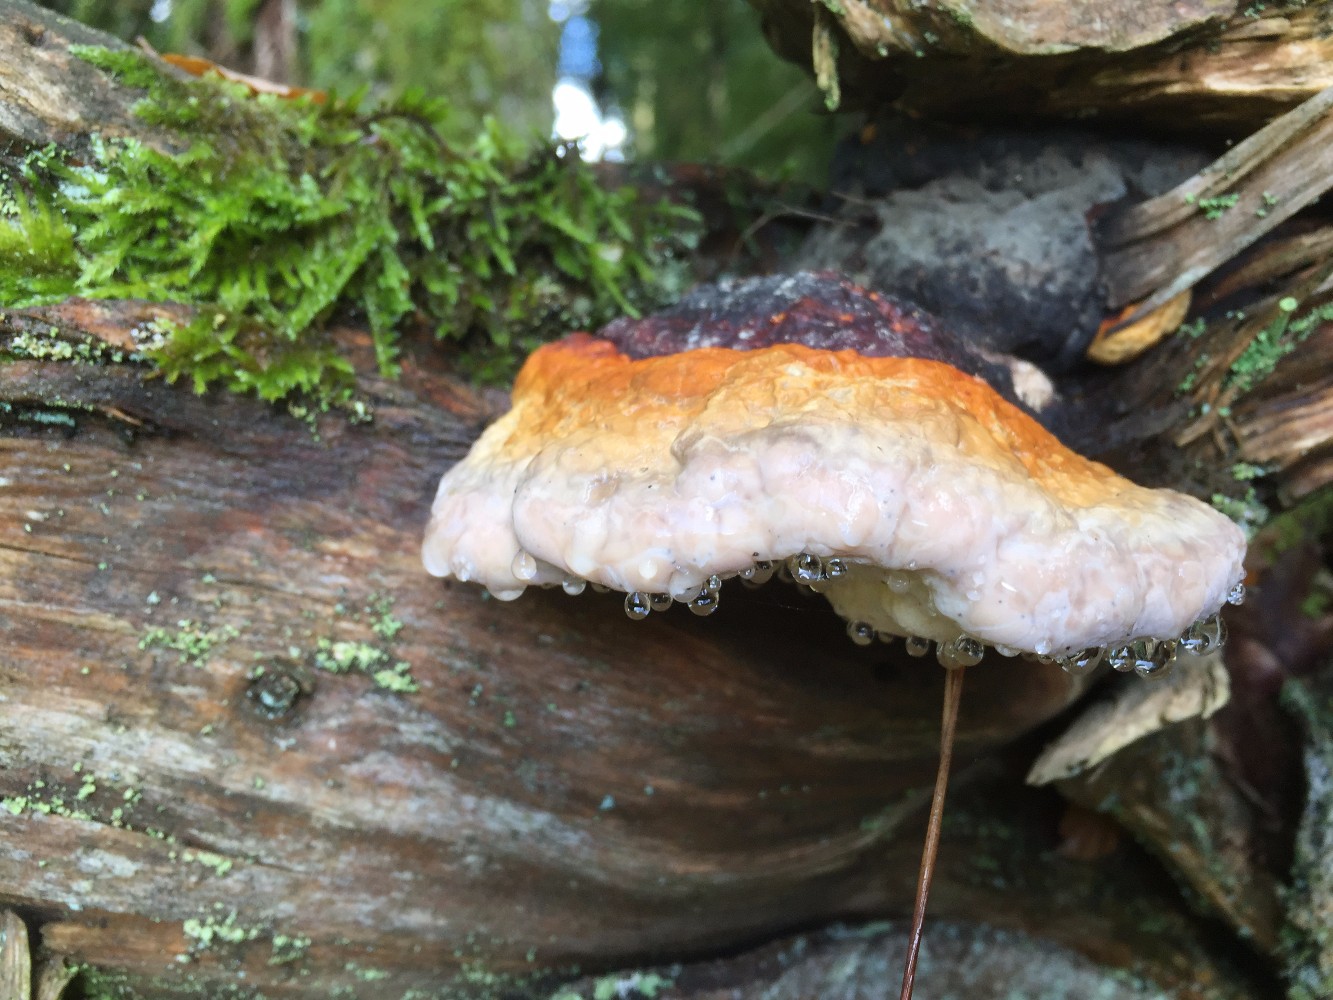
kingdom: Fungi
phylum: Basidiomycota
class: Agaricomycetes
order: Polyporales
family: Fomitopsidaceae
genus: Fomitopsis
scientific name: Fomitopsis pinicola
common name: randbæltet hovporesvamp
